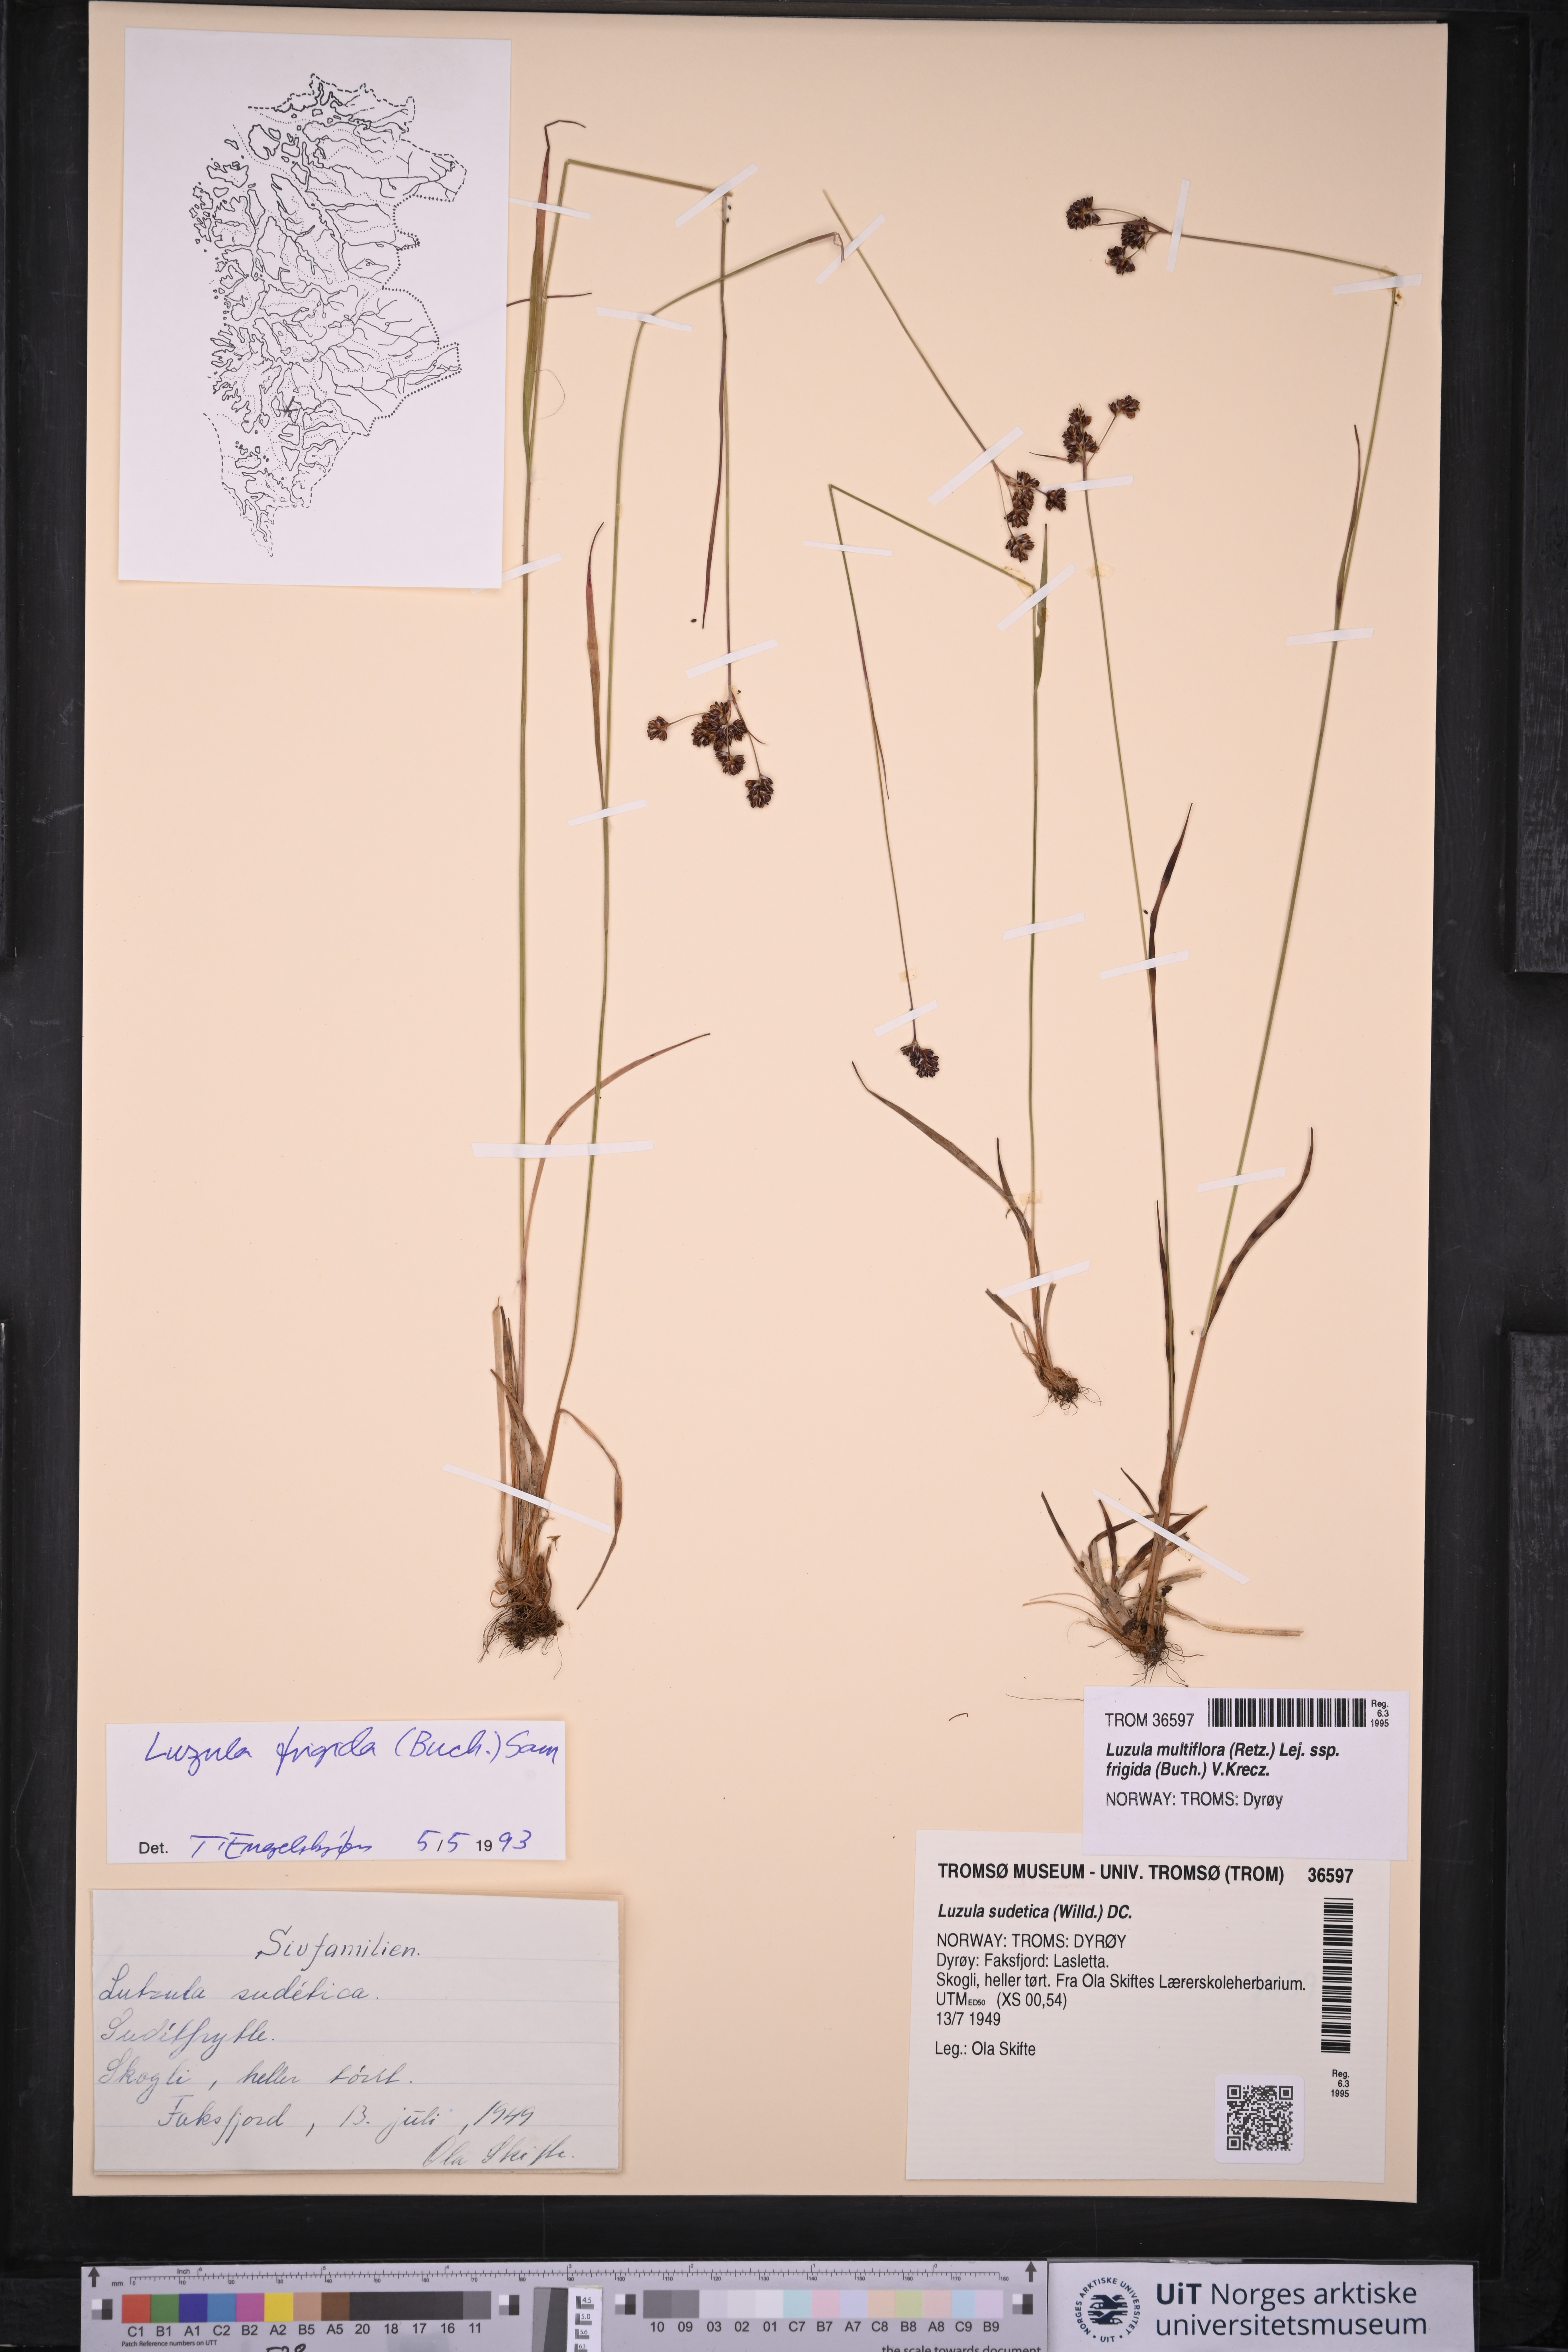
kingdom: Plantae
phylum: Tracheophyta
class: Liliopsida
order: Poales
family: Juncaceae
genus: Luzula
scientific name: Luzula multiflora
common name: Heath wood-rush
